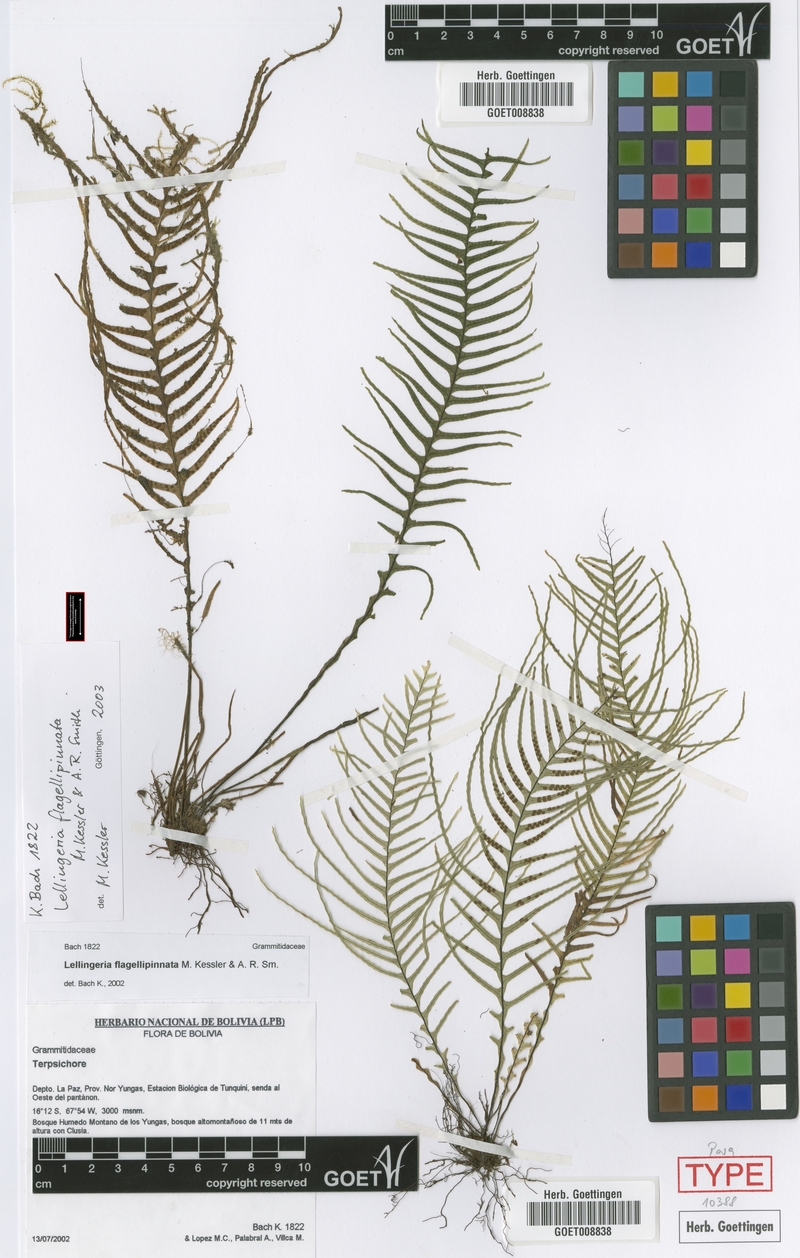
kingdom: Plantae
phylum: Tracheophyta
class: Polypodiopsida
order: Polypodiales
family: Polypodiaceae
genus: Lellingeria
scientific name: Lellingeria flagellipinnata
